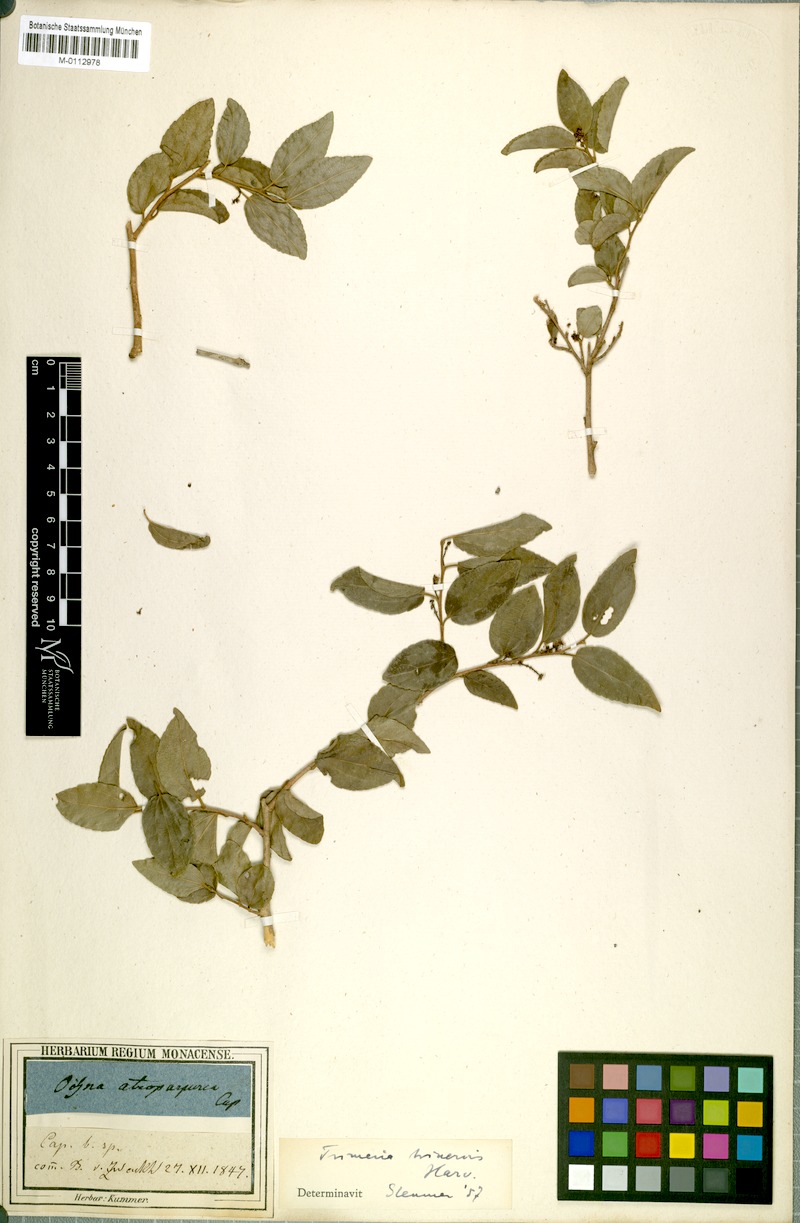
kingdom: Plantae
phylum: Tracheophyta
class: Magnoliopsida
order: Malpighiales
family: Salicaceae
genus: Trimeria
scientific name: Trimeria trinervis
